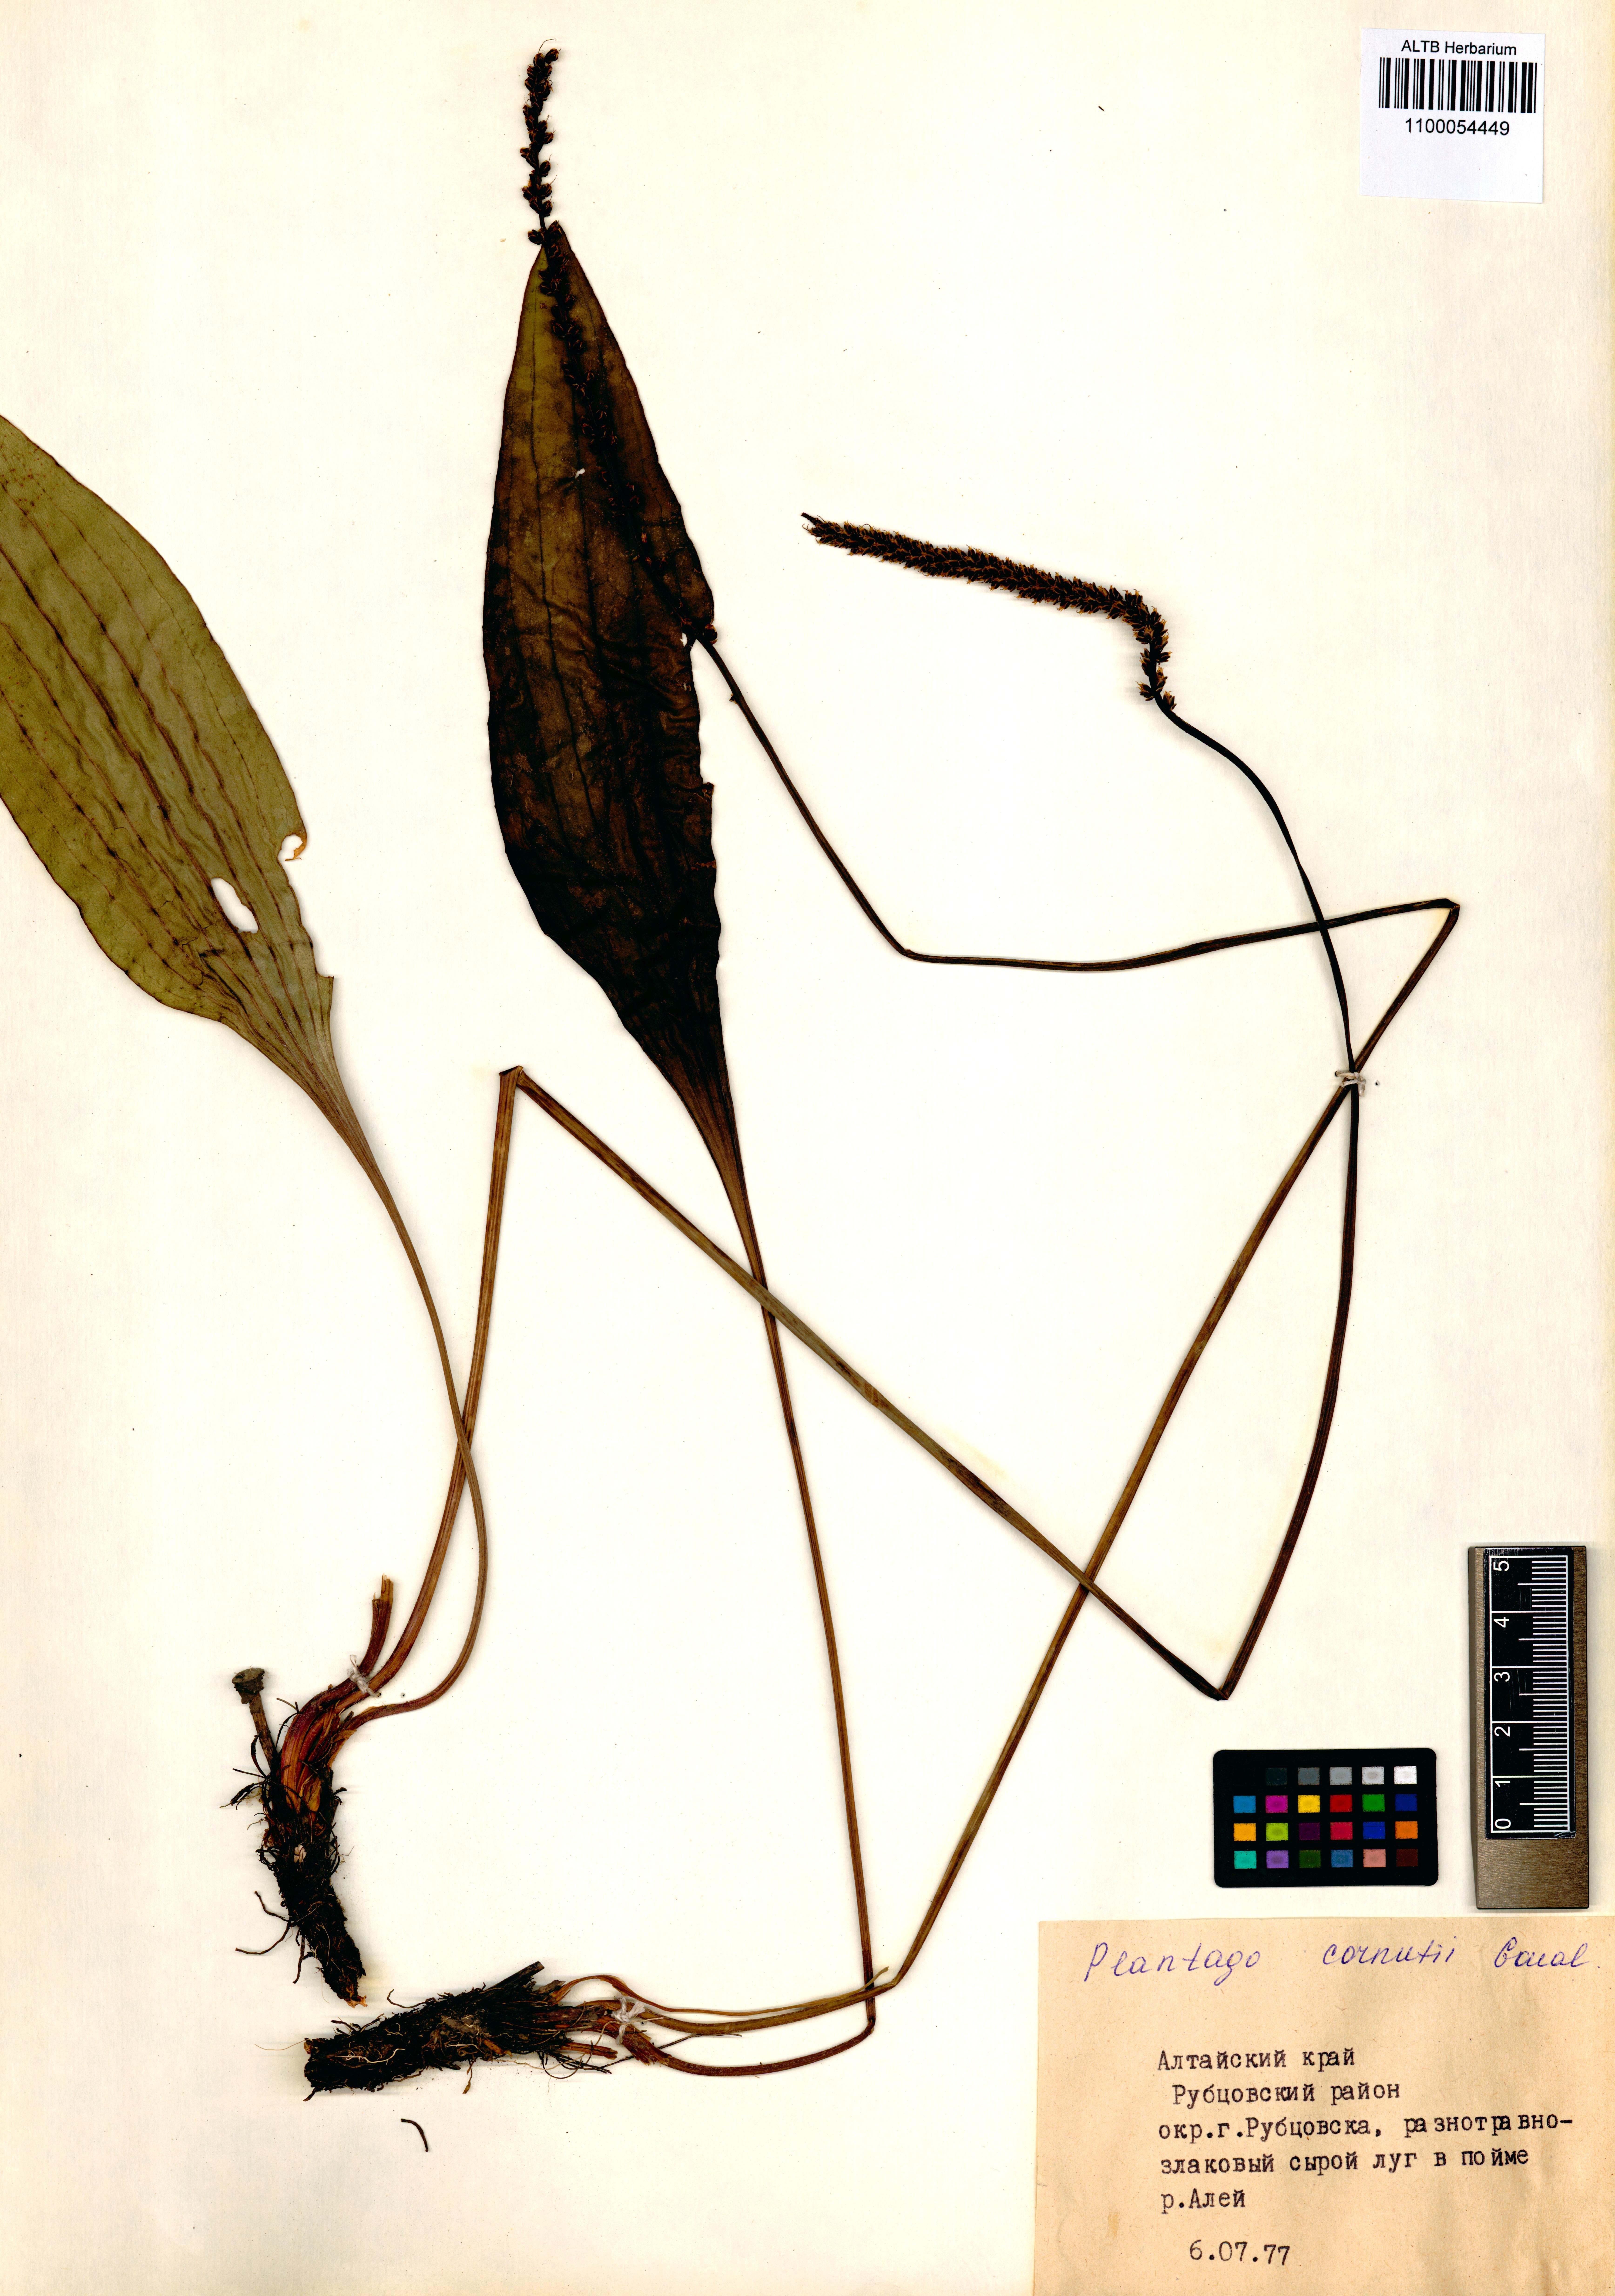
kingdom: Plantae
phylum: Tracheophyta
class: Magnoliopsida
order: Lamiales
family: Plantaginaceae
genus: Plantago
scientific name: Plantago cornuti
